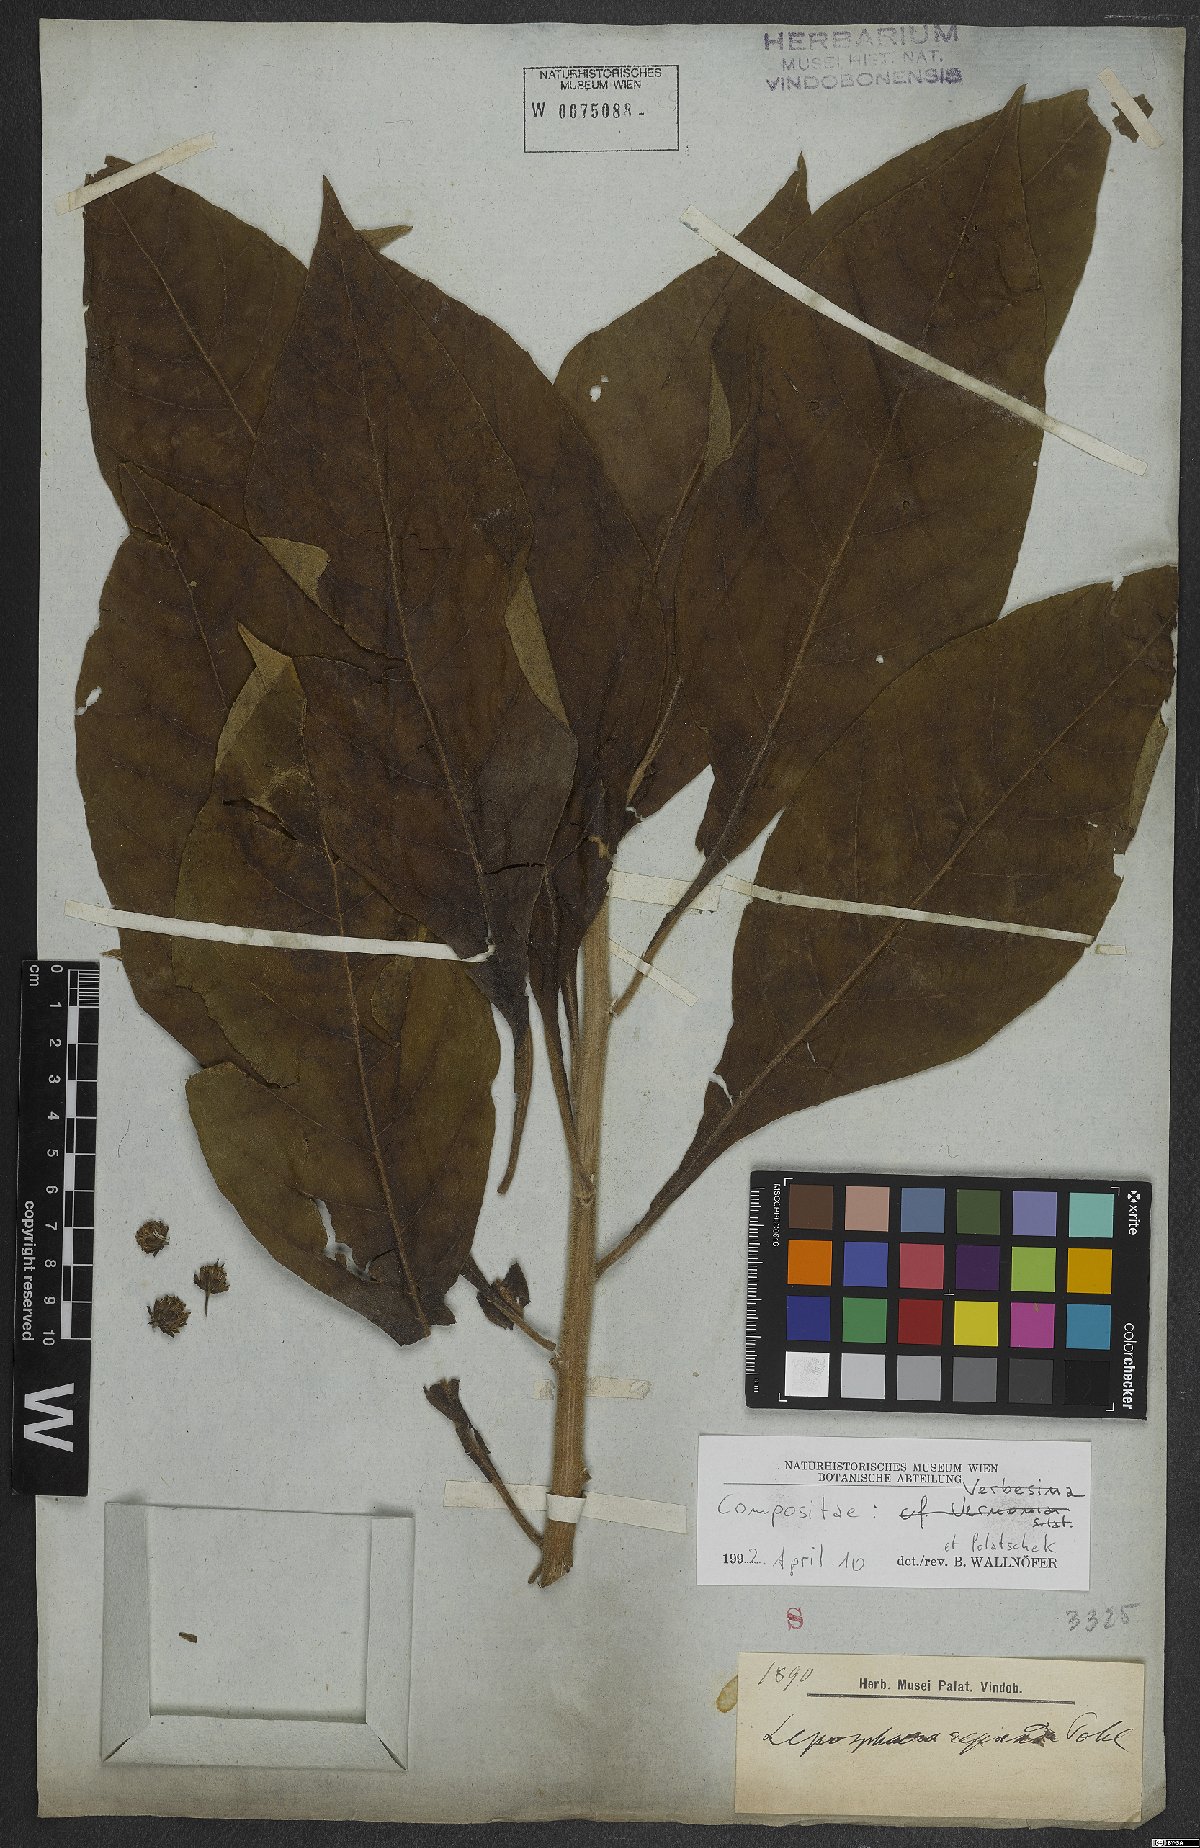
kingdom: Plantae
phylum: Tracheophyta
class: Magnoliopsida
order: Asterales
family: Asteraceae
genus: Verbesina
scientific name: Verbesina
